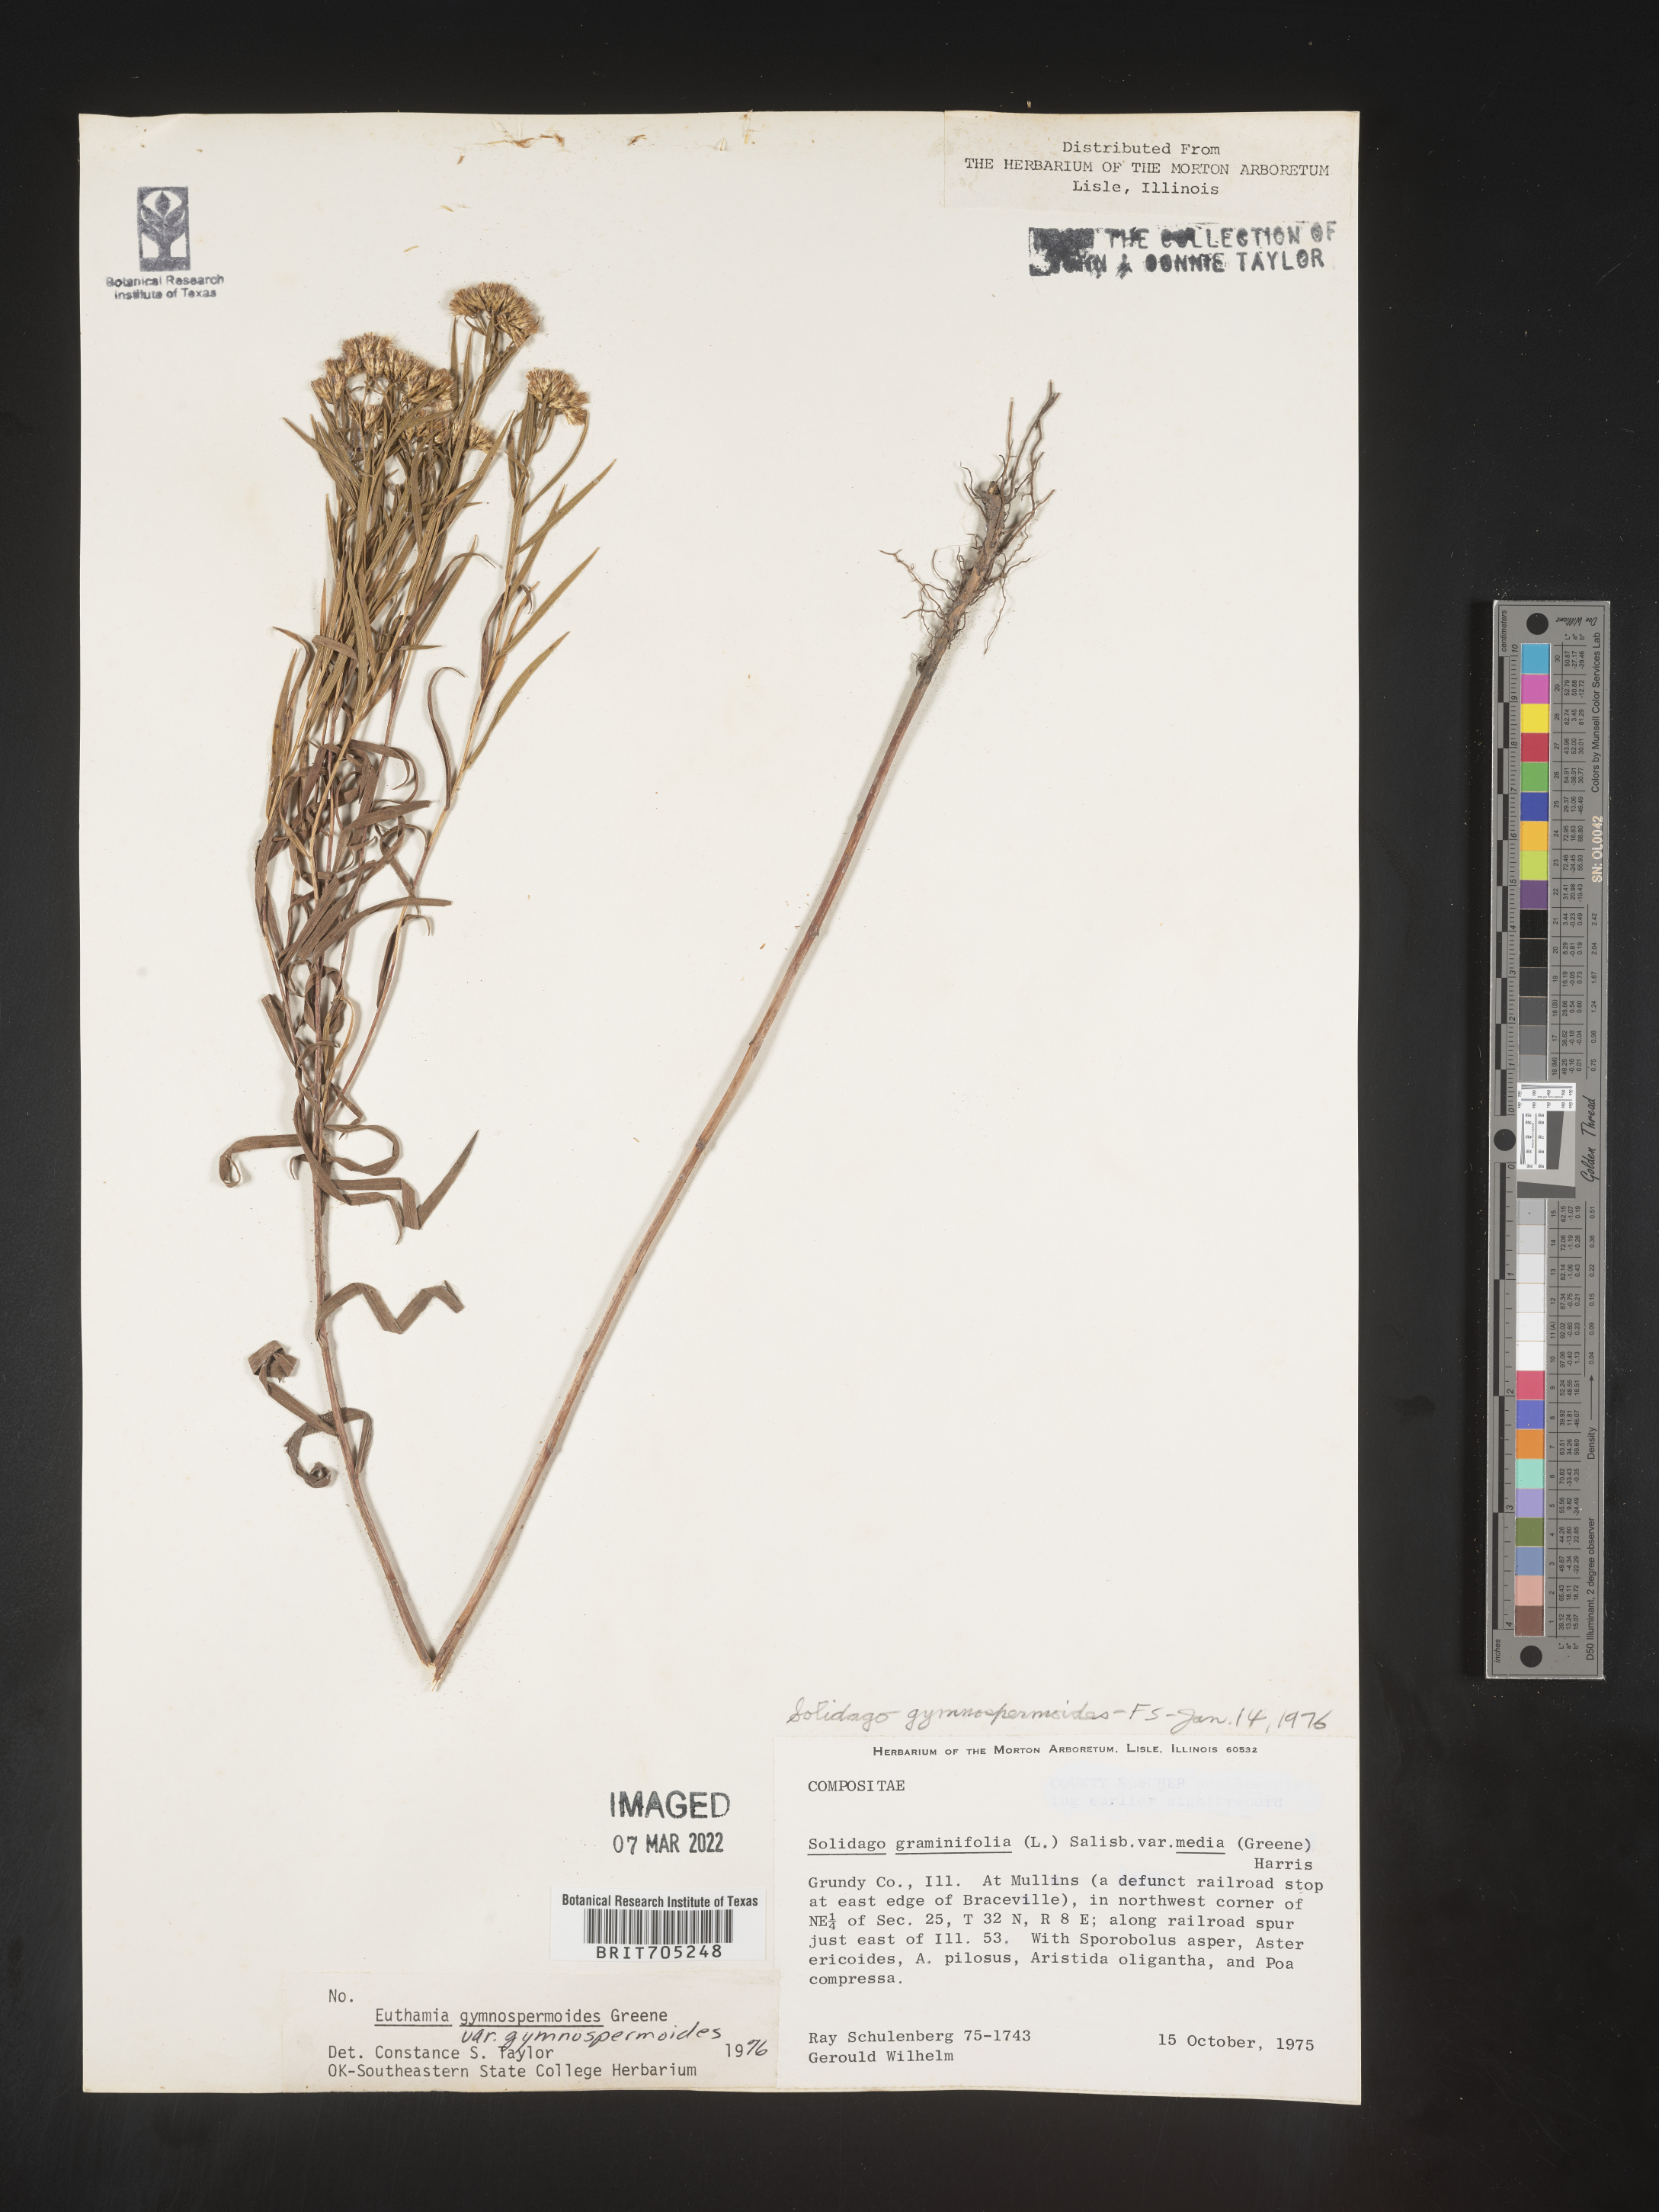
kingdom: Plantae
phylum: Tracheophyta
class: Magnoliopsida
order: Asterales
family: Asteraceae
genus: Euthamia
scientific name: Euthamia gymnospermoides
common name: Great plains goldentop
